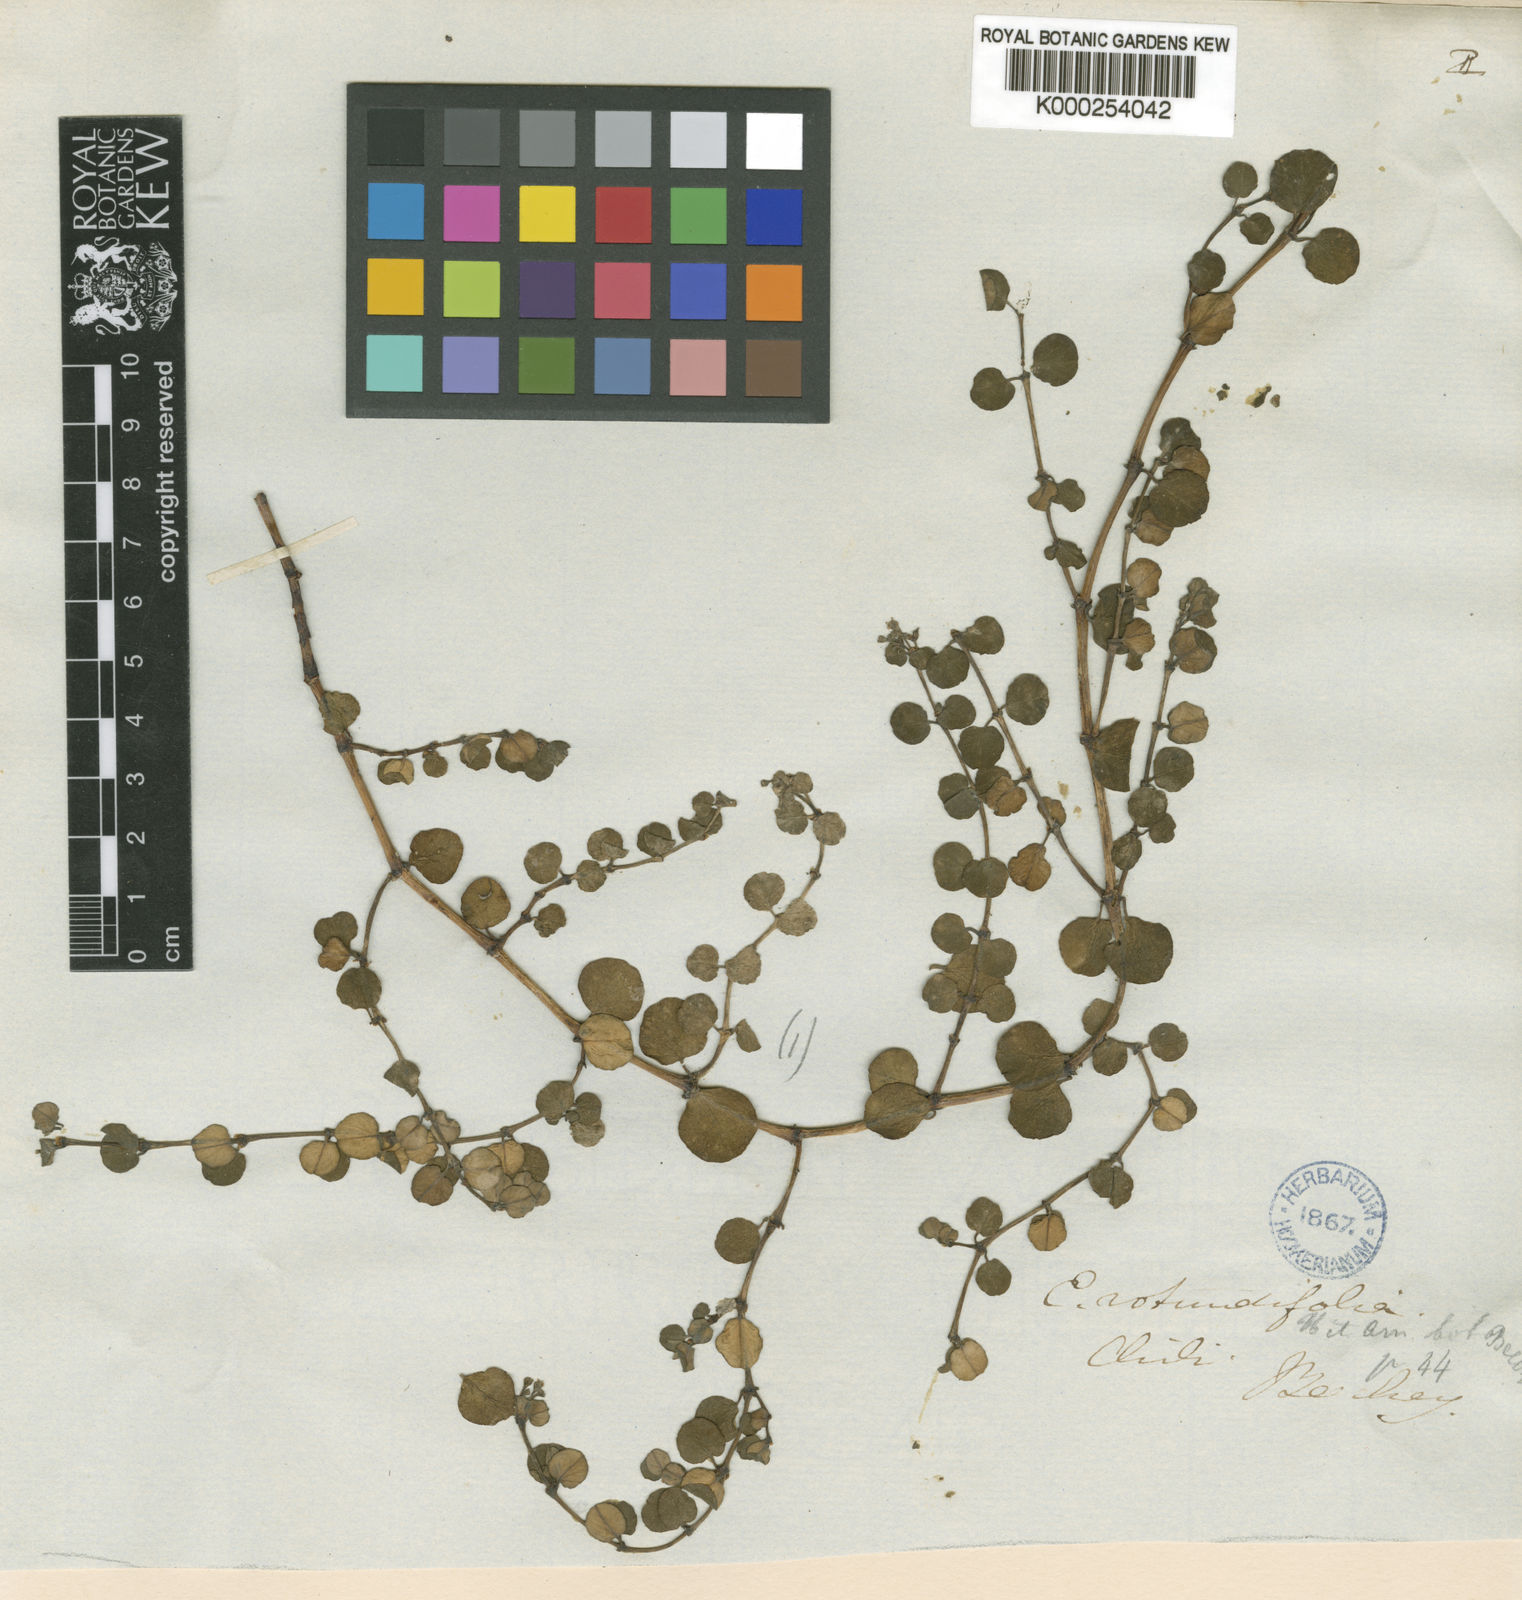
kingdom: Plantae
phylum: Tracheophyta
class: Magnoliopsida
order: Malpighiales
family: Euphorbiaceae
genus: Euphorbia
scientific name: Euphorbia engelmannii
